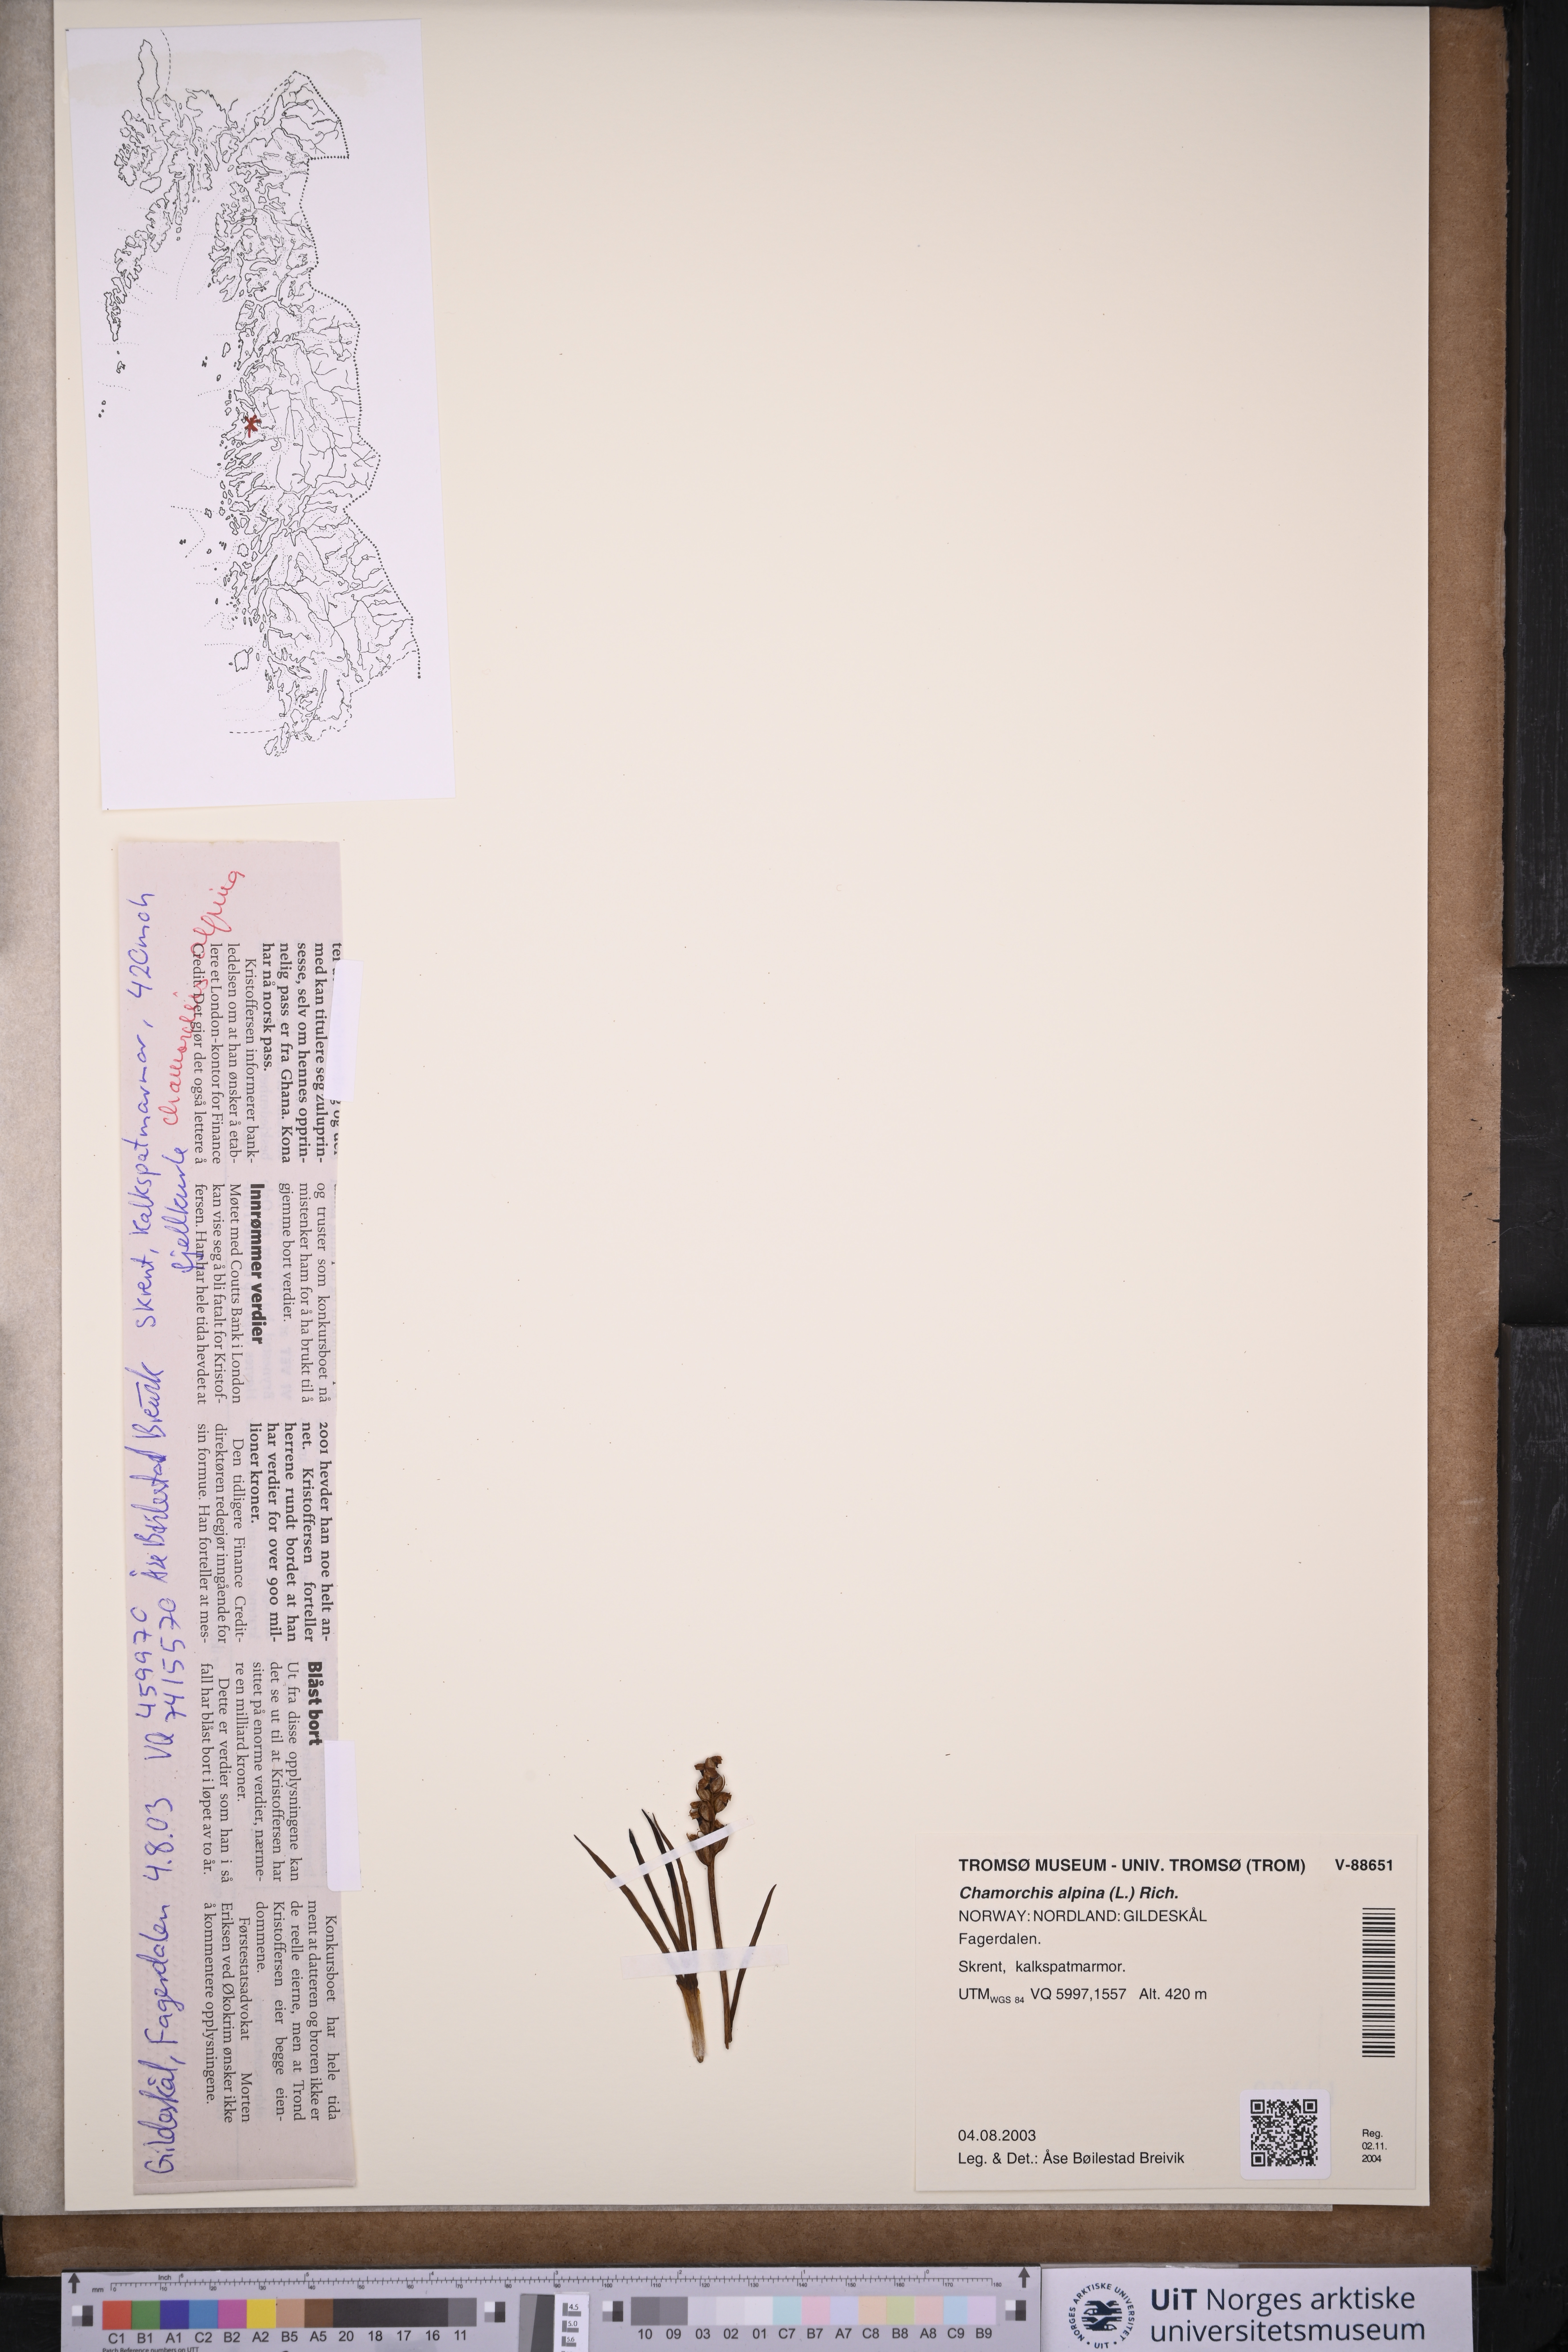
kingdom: Plantae
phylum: Tracheophyta
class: Liliopsida
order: Asparagales
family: Orchidaceae
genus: Chamorchis
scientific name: Chamorchis alpina
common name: Alpine chamorchis
